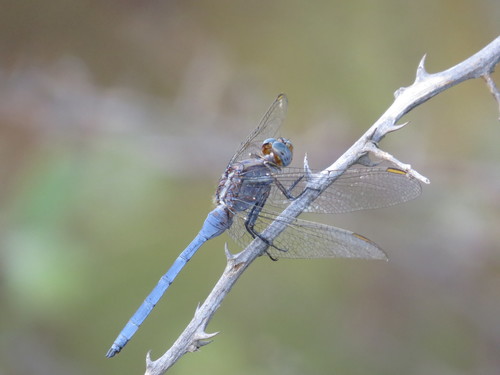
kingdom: Animalia
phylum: Arthropoda
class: Insecta
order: Odonata
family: Libellulidae
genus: Orthetrum
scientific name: Orthetrum chrysostigma
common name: Epaulet skimmer
